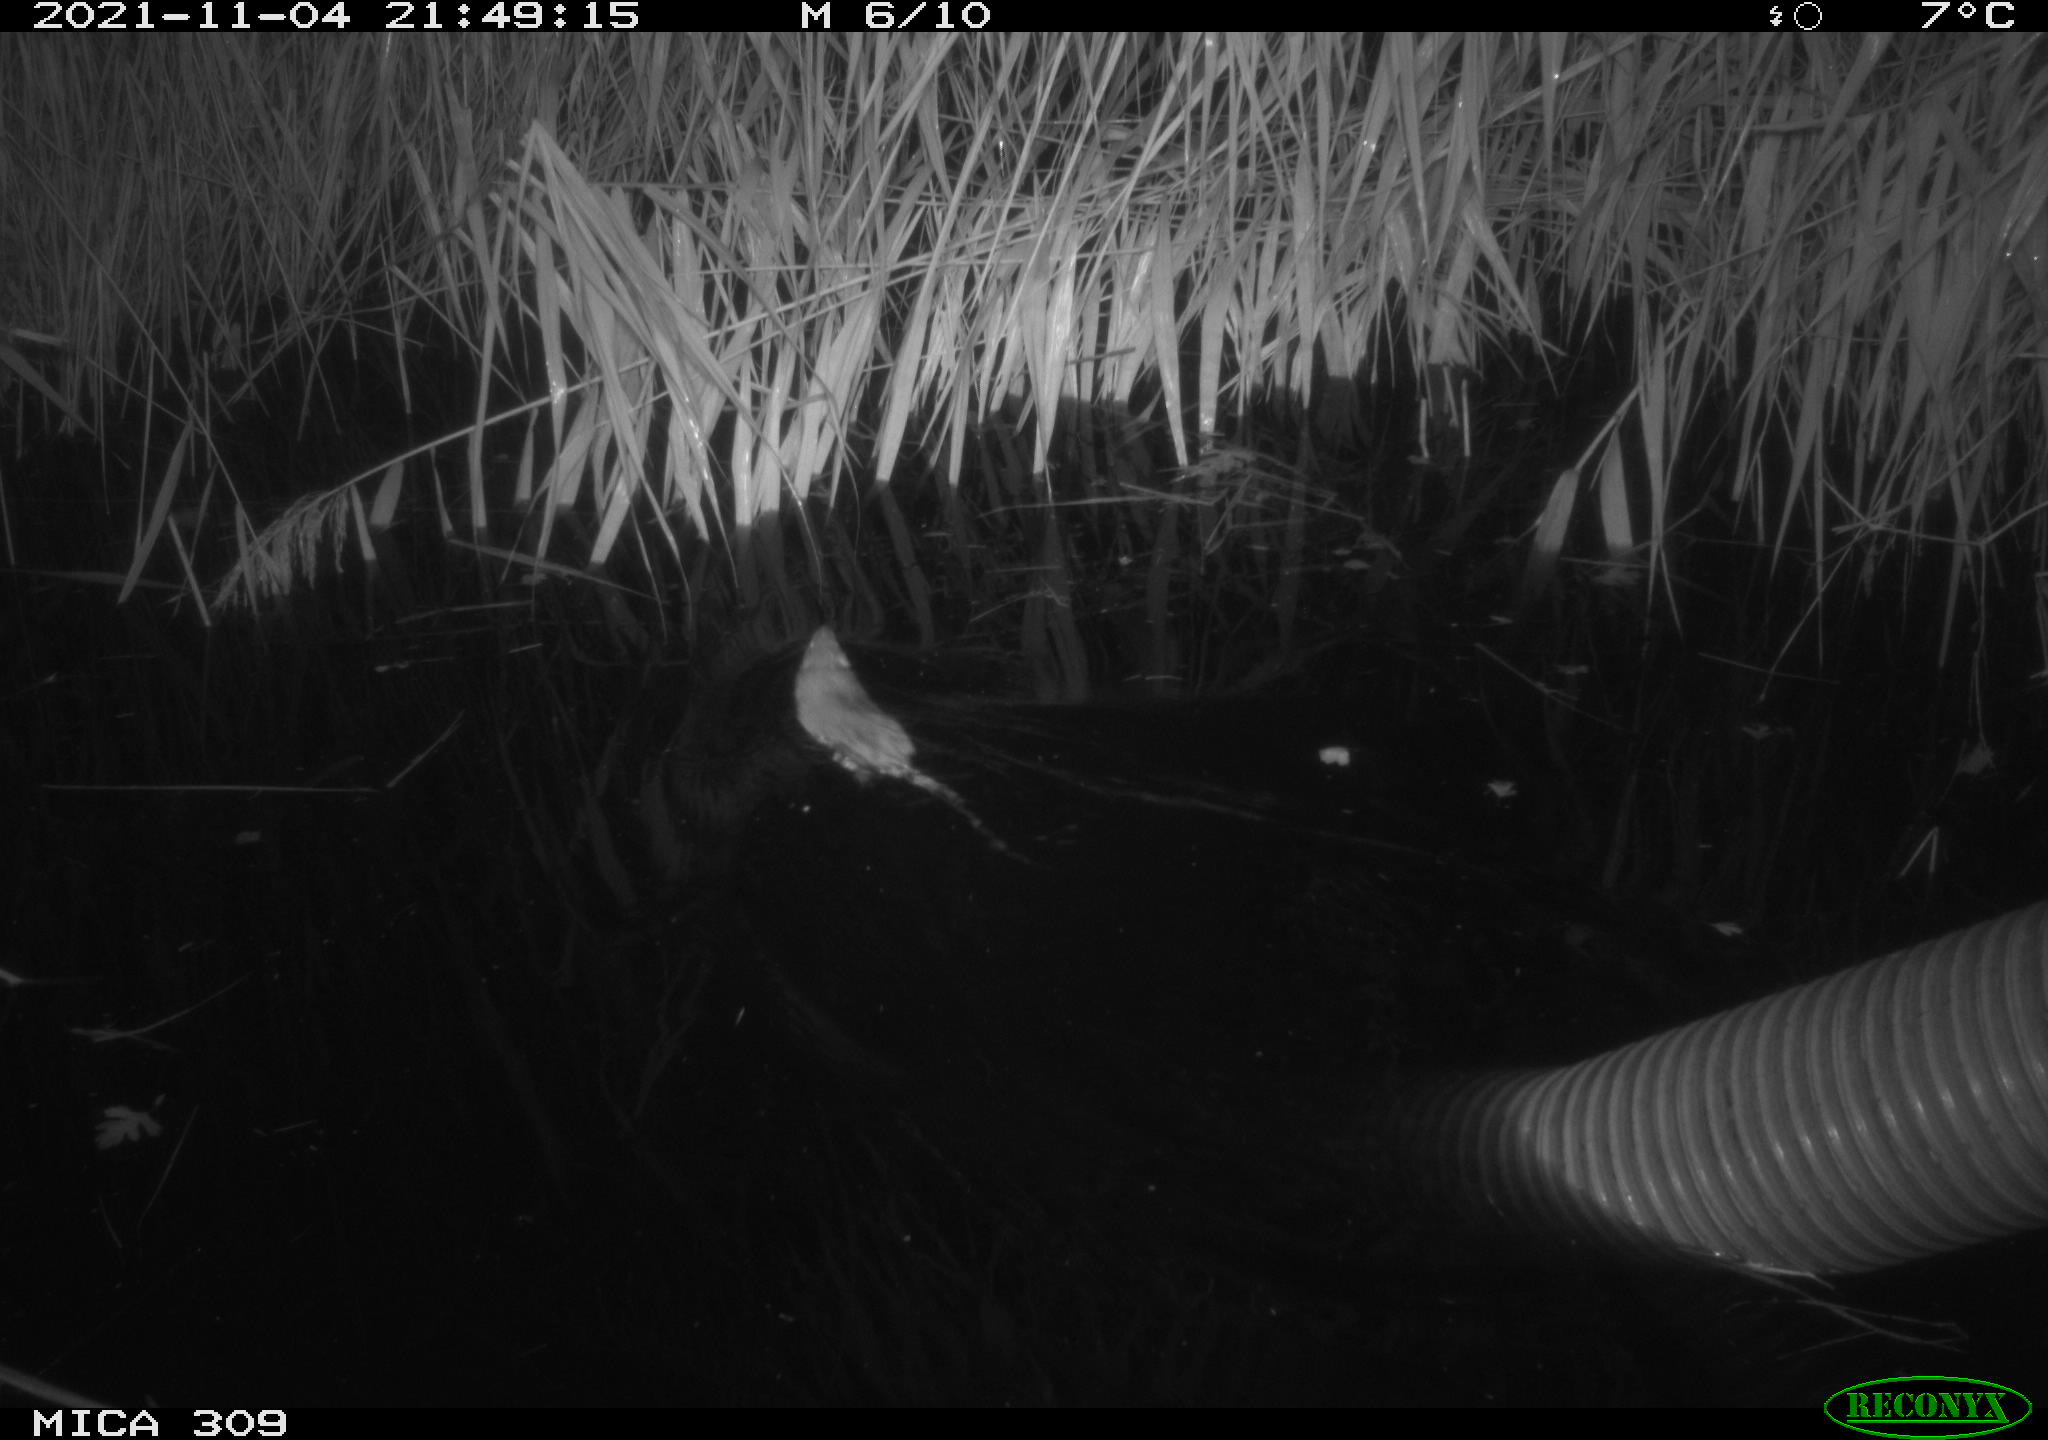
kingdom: Animalia
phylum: Chordata
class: Mammalia
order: Rodentia
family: Muridae
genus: Rattus
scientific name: Rattus norvegicus
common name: Brown rat
